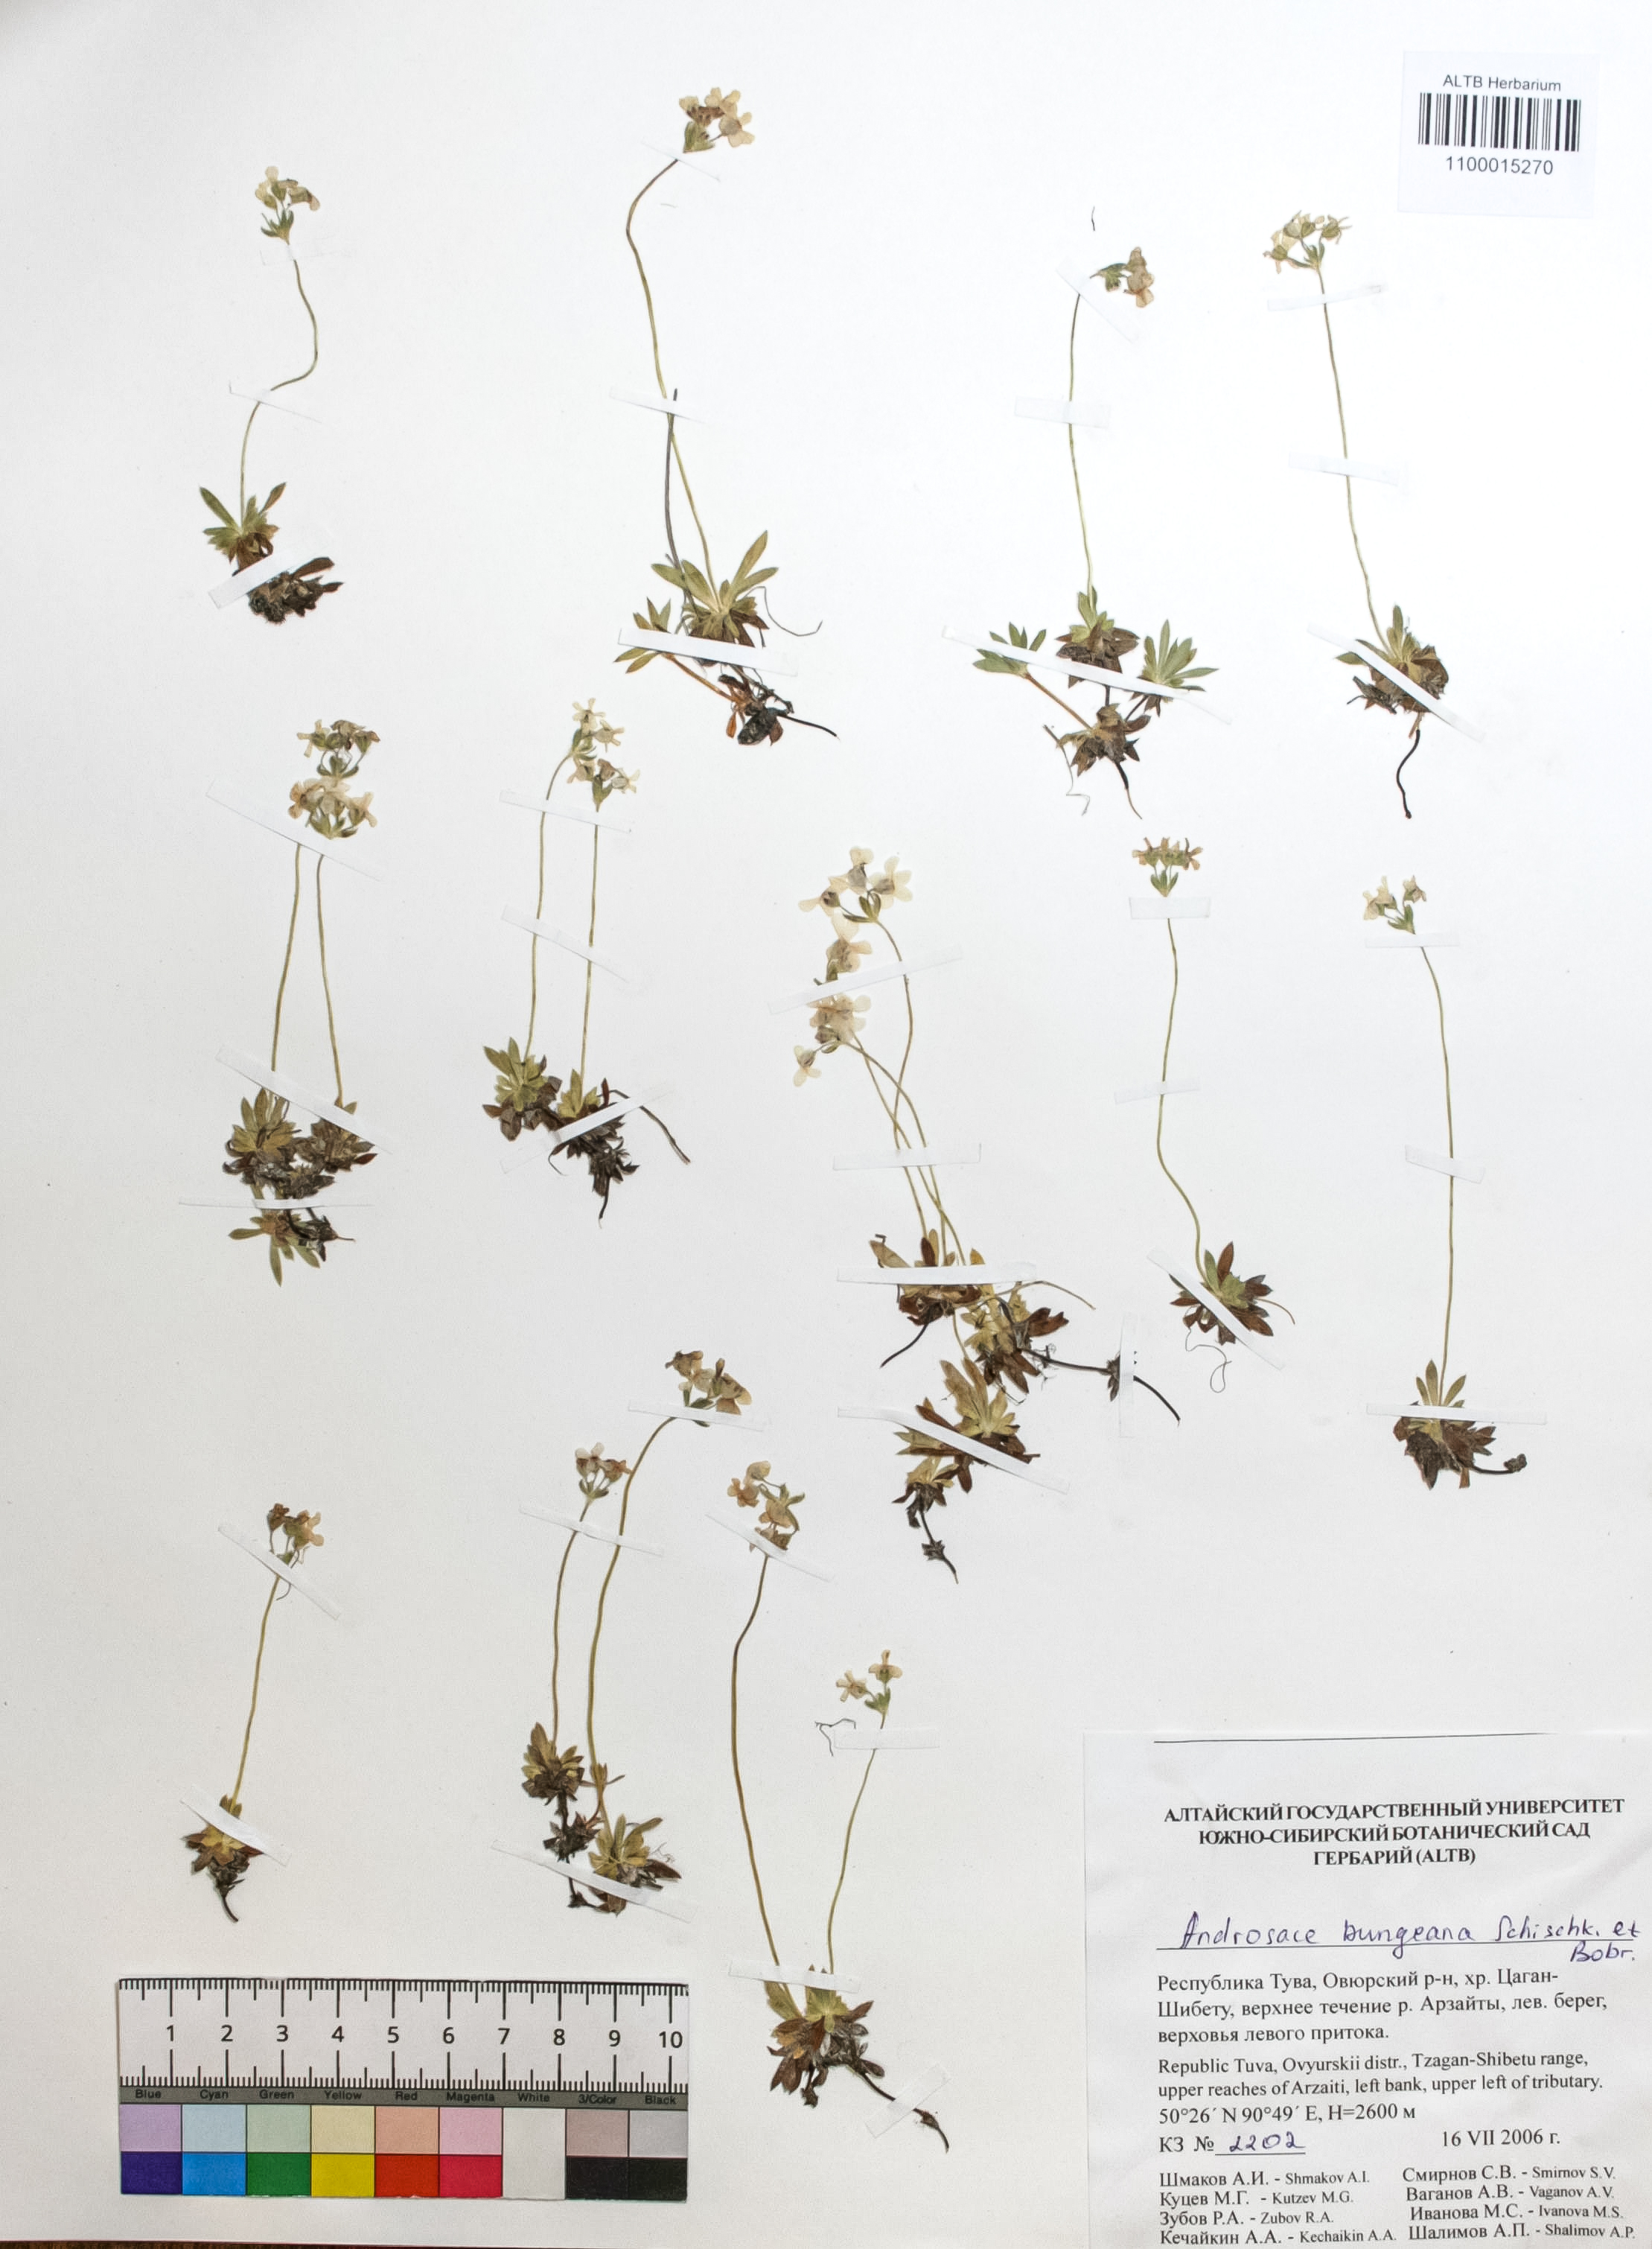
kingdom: Plantae
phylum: Tracheophyta
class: Magnoliopsida
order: Ericales
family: Primulaceae
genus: Androsace
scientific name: Androsace bungeana
